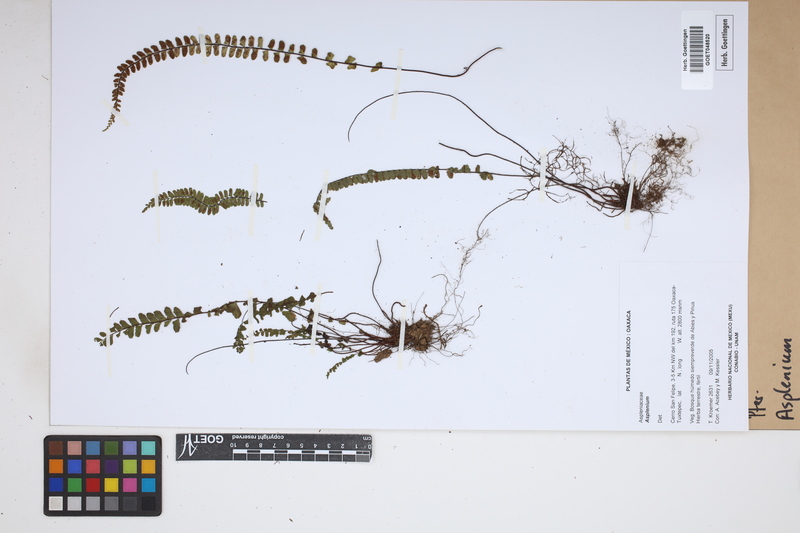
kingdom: Plantae
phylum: Tracheophyta
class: Polypodiopsida
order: Polypodiales
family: Aspleniaceae
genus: Asplenium
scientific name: Asplenium
